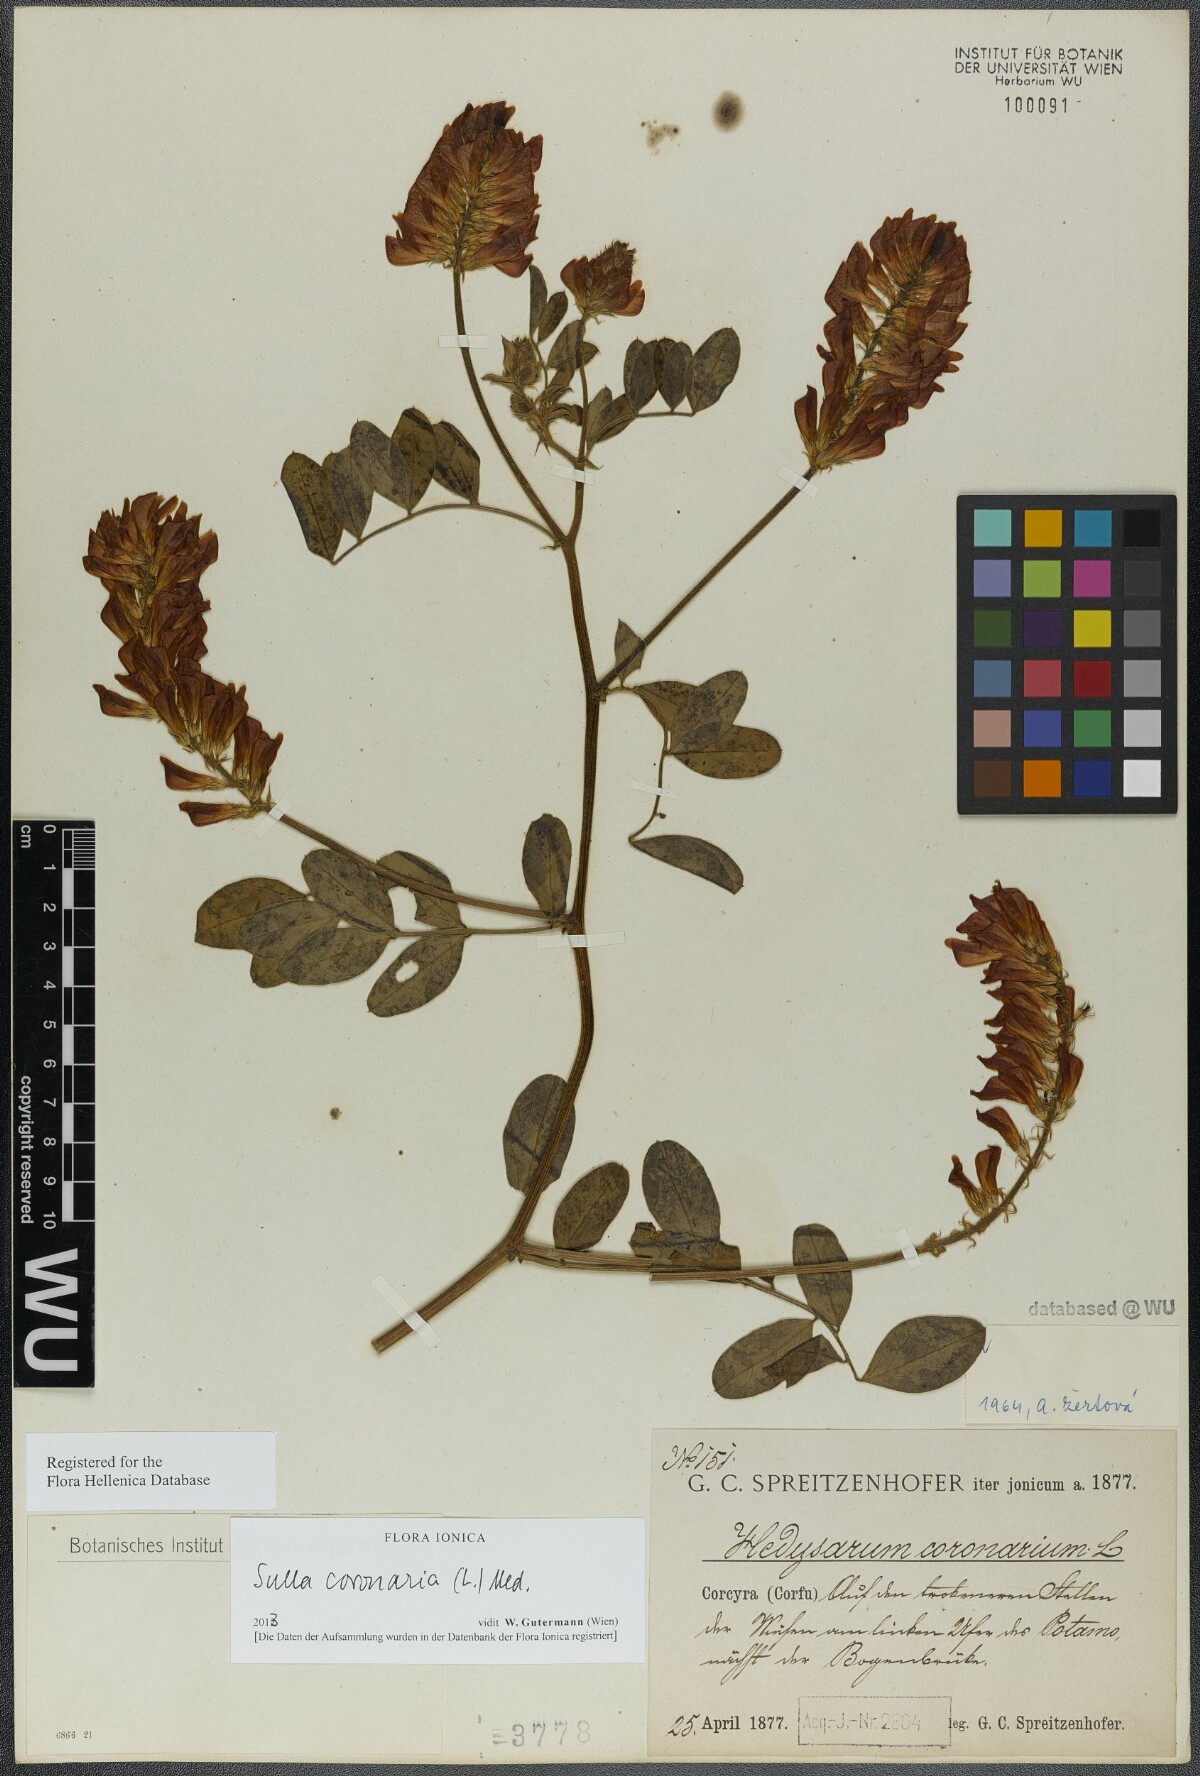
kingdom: Plantae
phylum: Tracheophyta
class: Magnoliopsida
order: Fabales
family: Fabaceae
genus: Sulla
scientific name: Sulla coronaria
